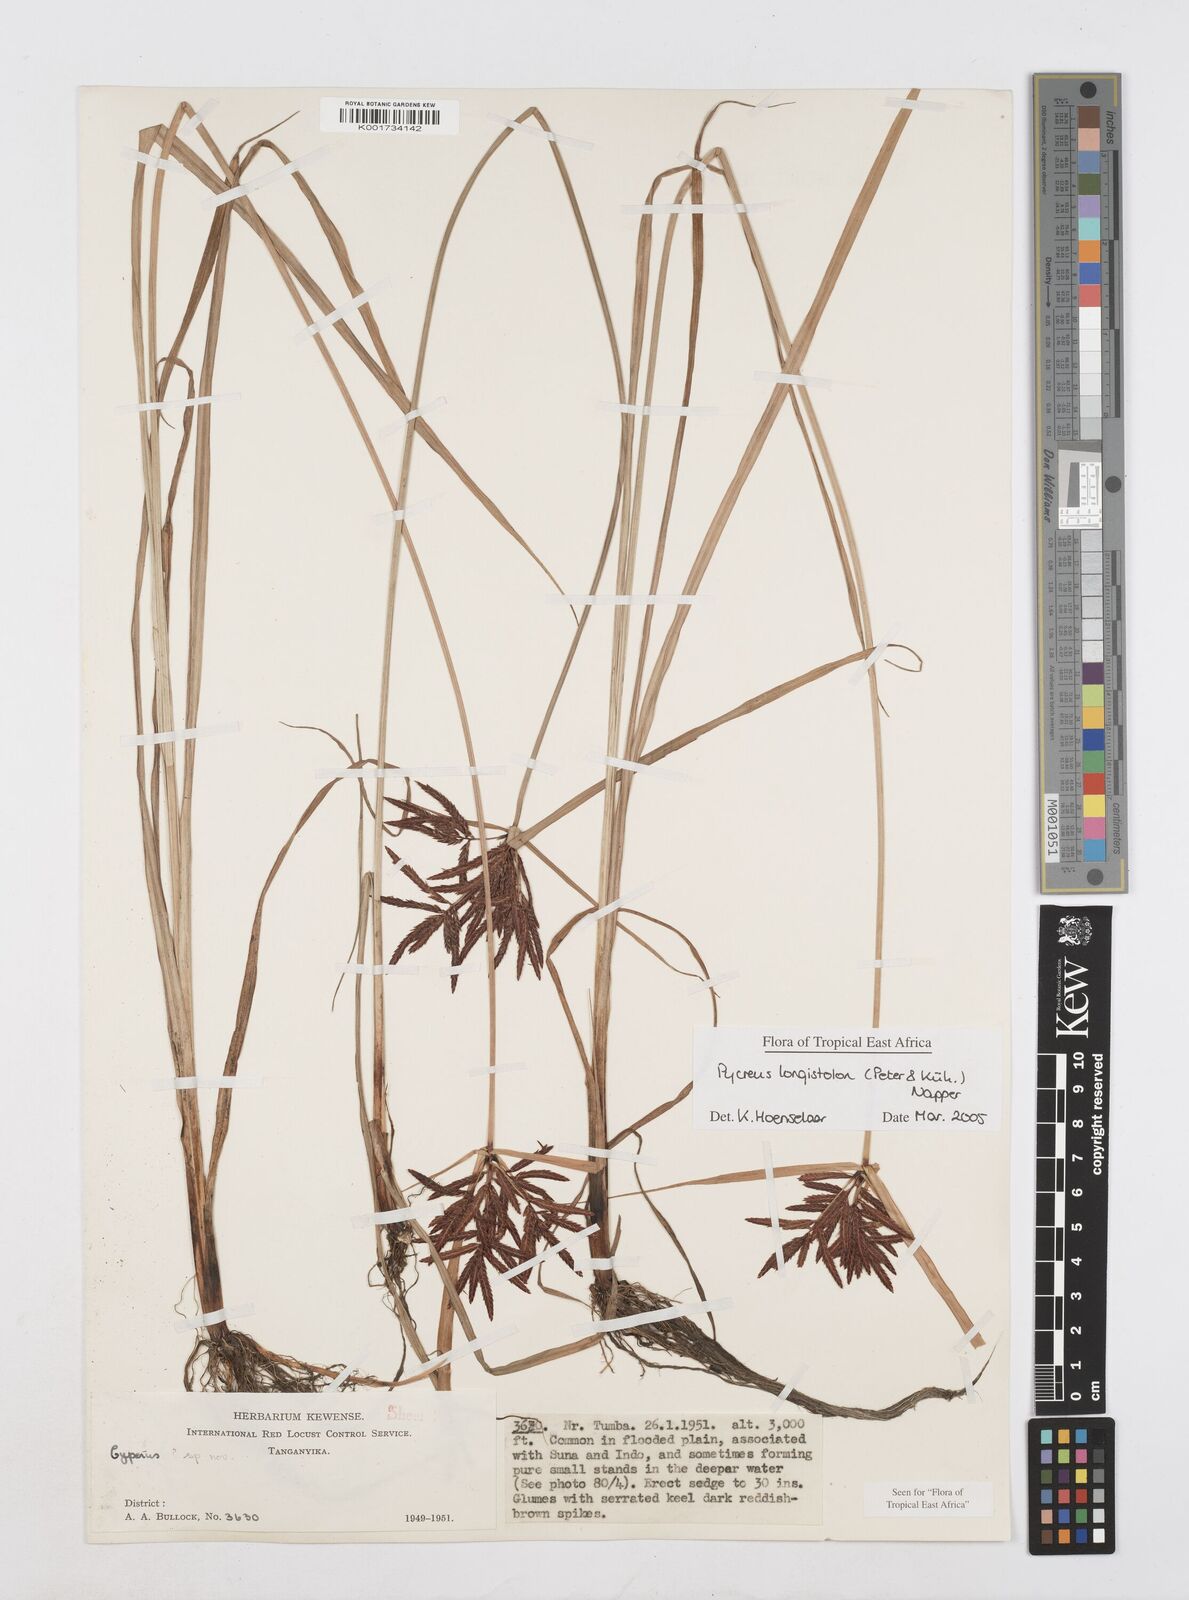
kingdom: Plantae
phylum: Tracheophyta
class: Liliopsida
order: Poales
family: Cyperaceae
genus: Cyperus
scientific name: Cyperus chrysanthus
